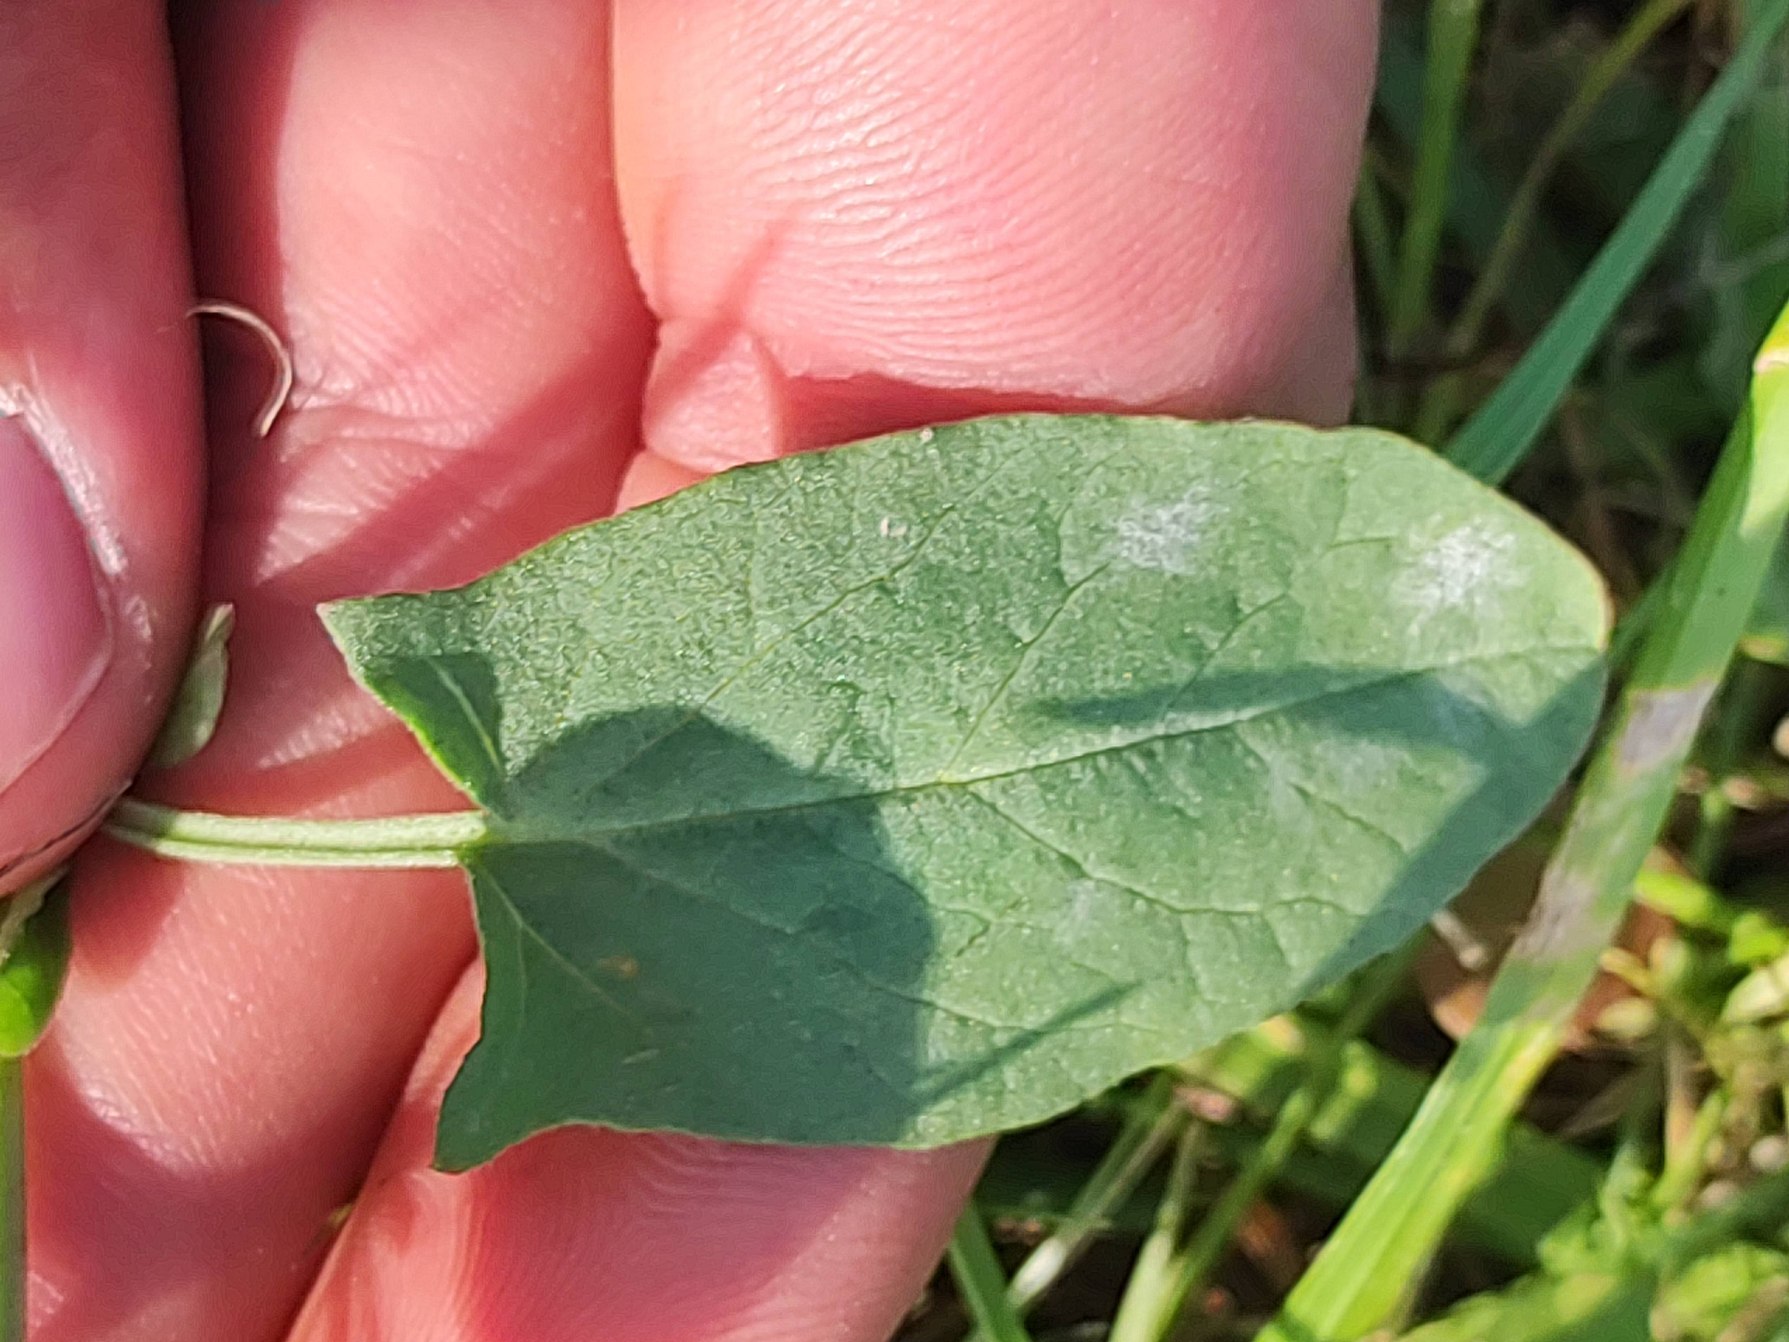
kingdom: Plantae
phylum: Tracheophyta
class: Magnoliopsida
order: Solanales
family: Convolvulaceae
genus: Convolvulus
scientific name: Convolvulus arvensis
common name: Ager-snerle
